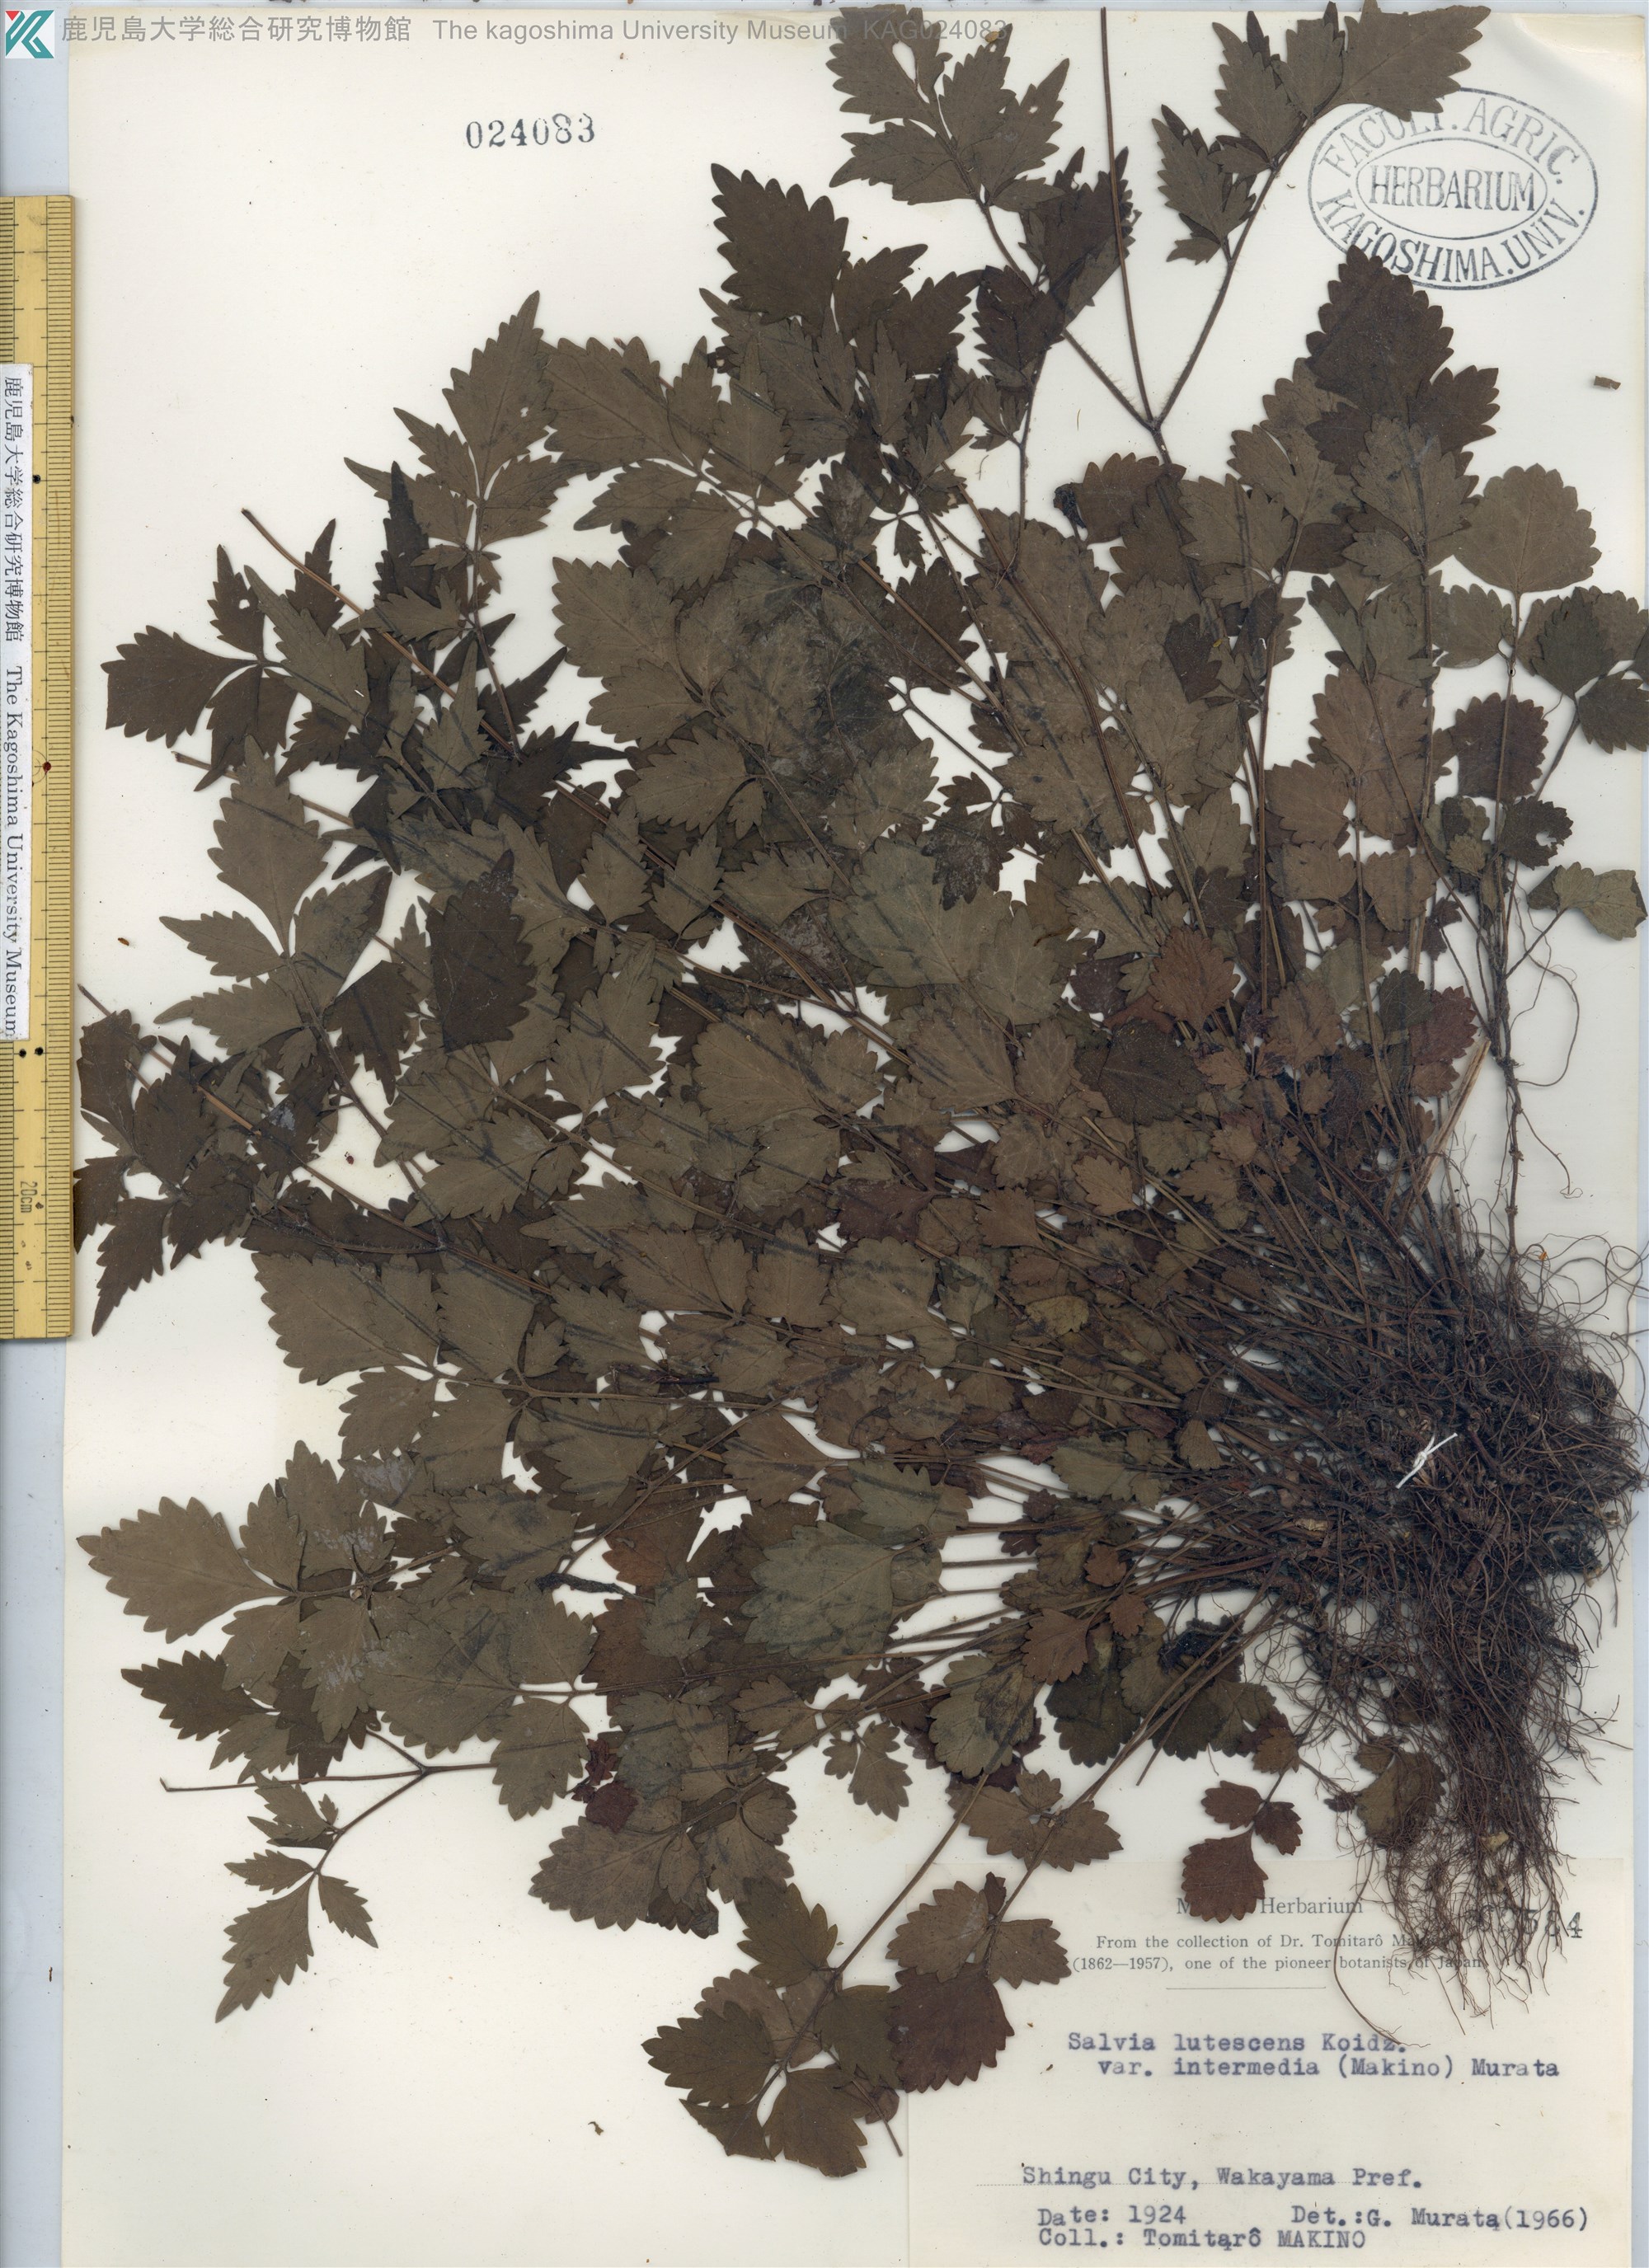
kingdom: Plantae
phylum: Tracheophyta
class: Magnoliopsida
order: Lamiales
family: Lamiaceae
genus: Salvia
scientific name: Salvia lutescens
